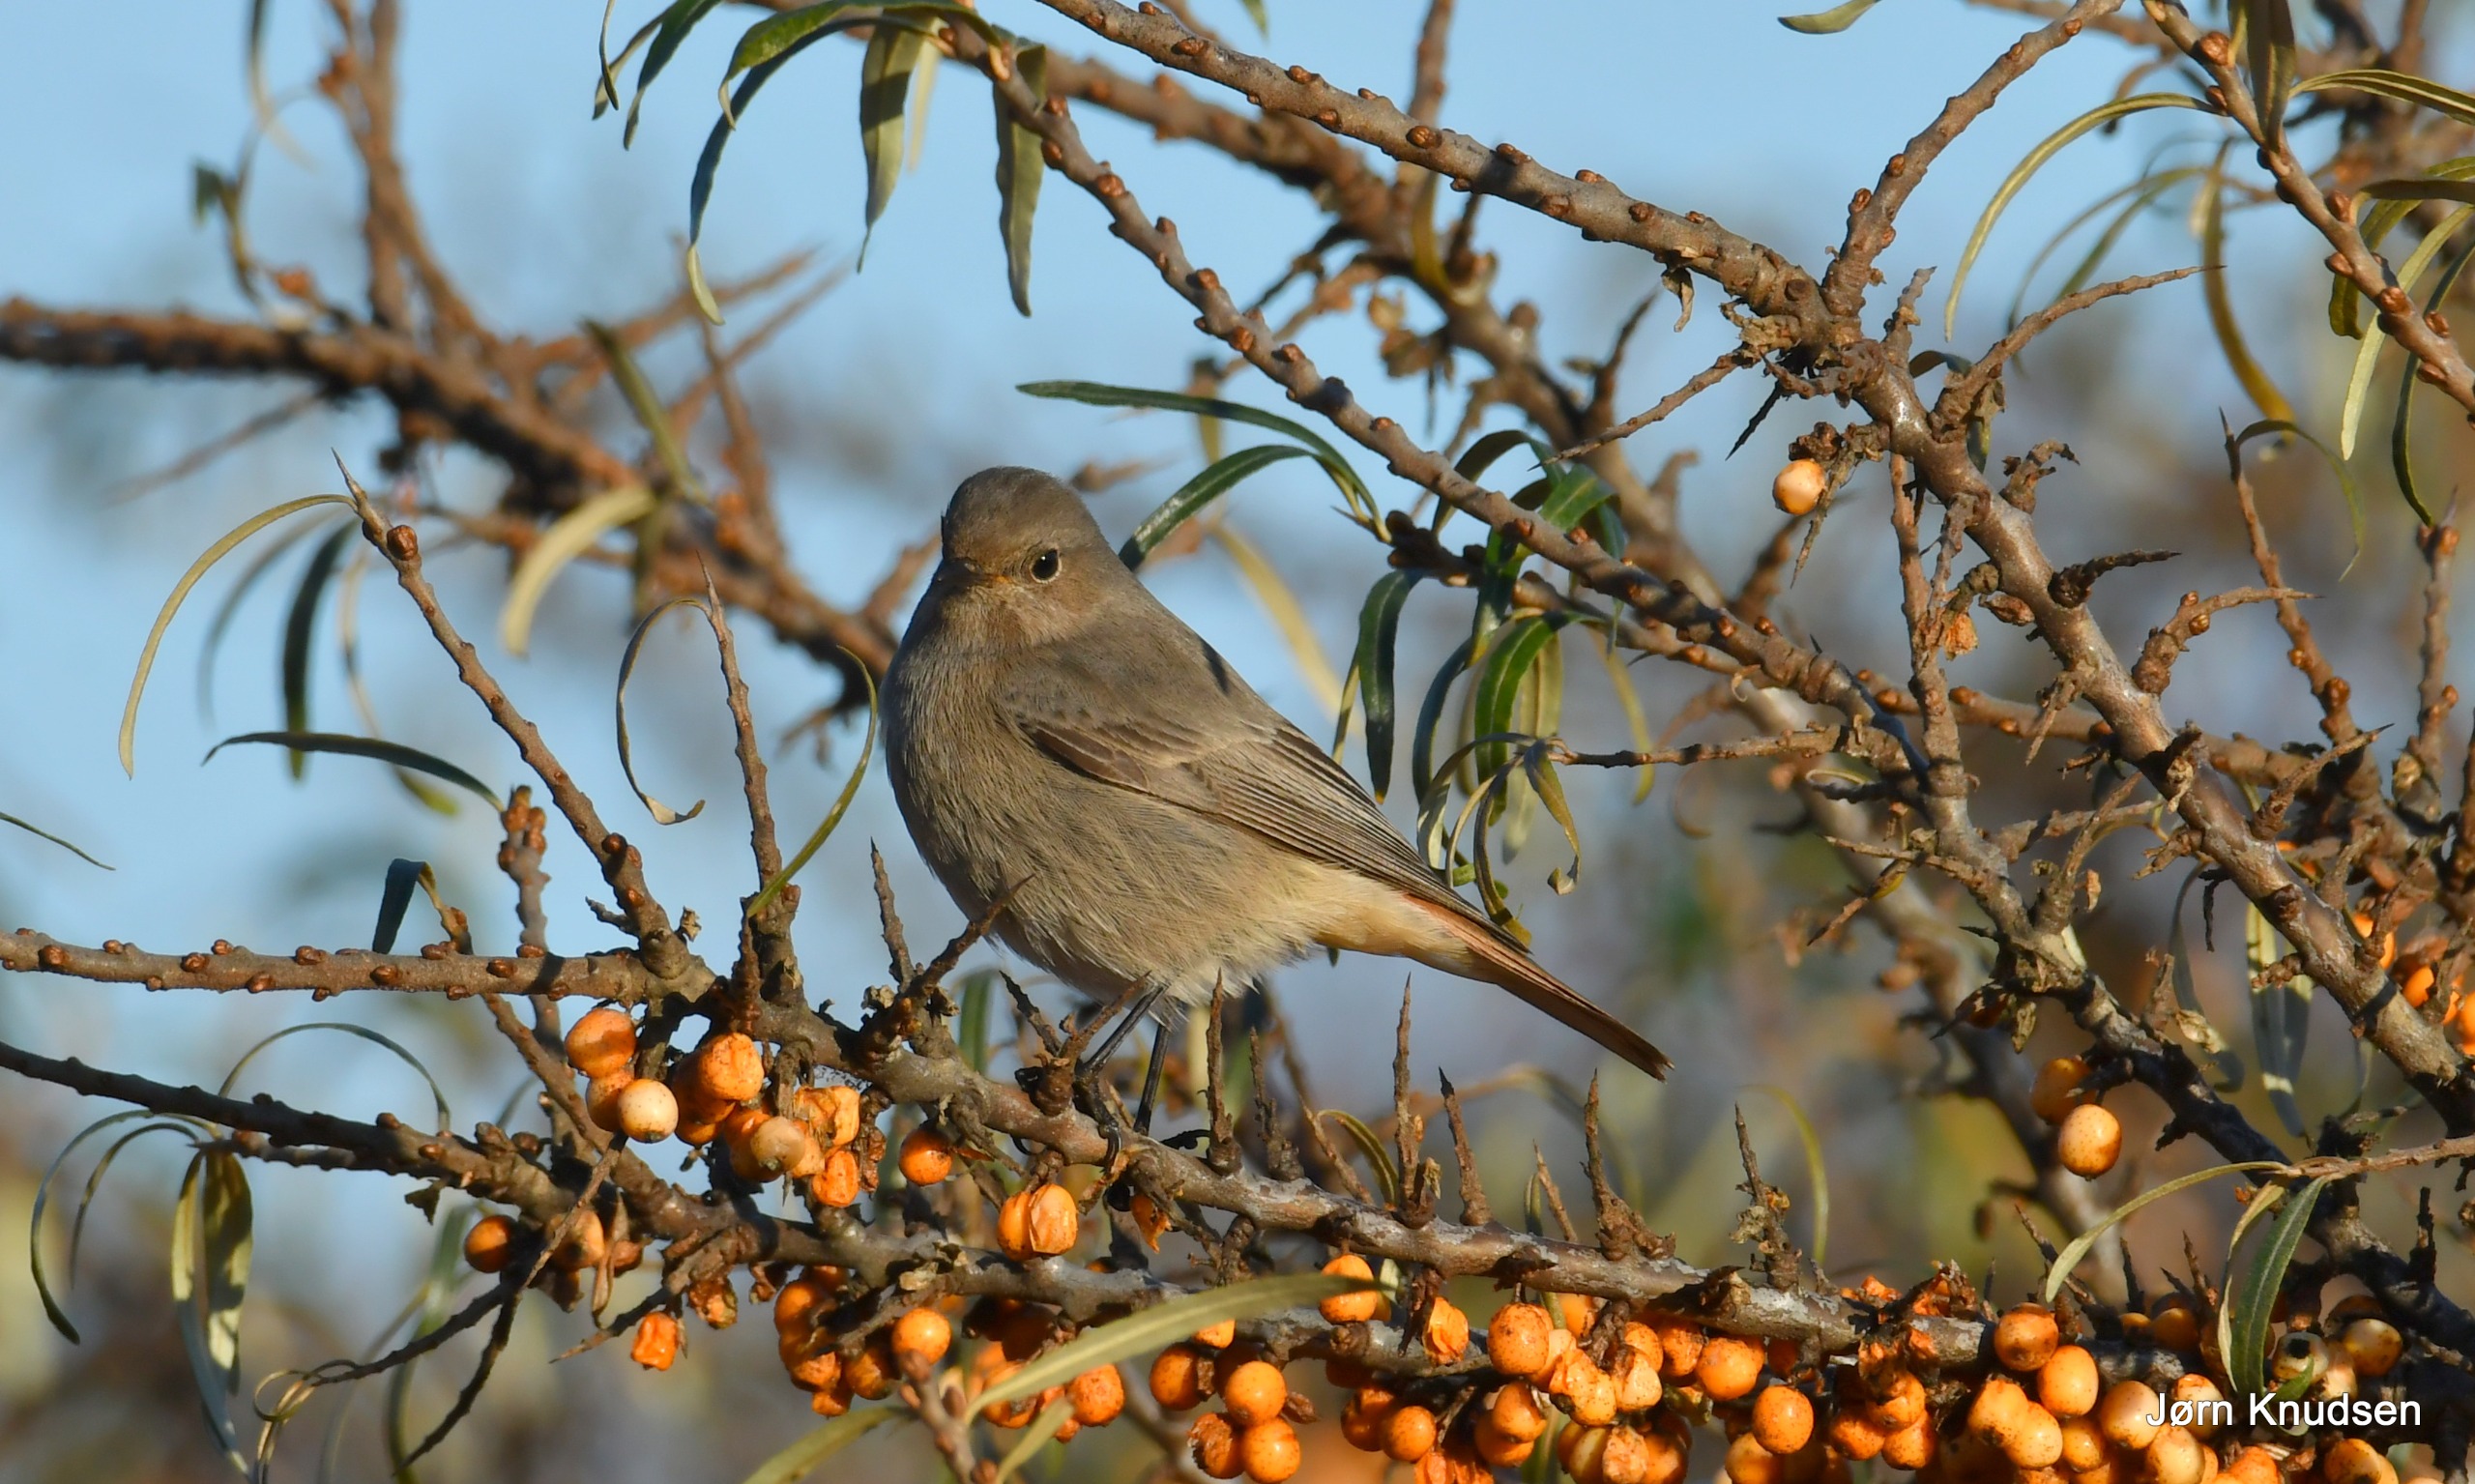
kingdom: Animalia
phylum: Chordata
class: Aves
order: Passeriformes
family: Muscicapidae
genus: Phoenicurus
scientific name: Phoenicurus ochruros
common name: Husrødstjert
